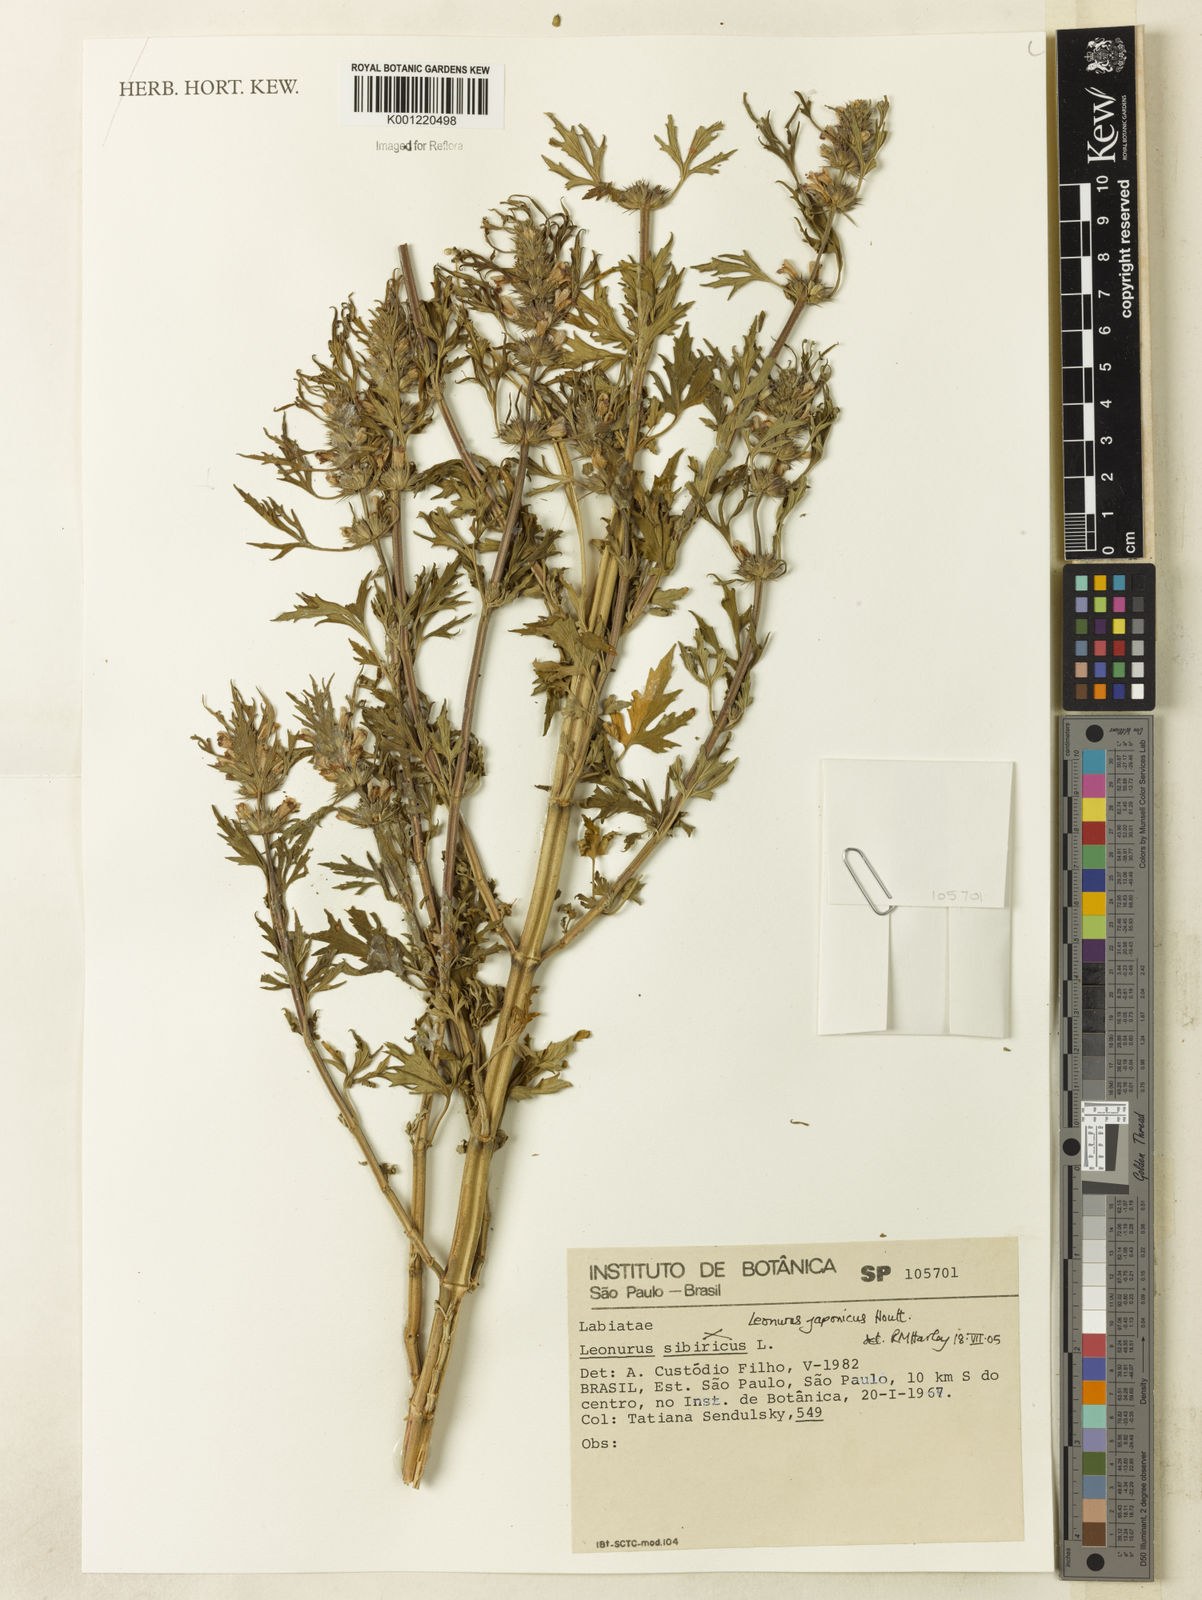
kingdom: Plantae
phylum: Tracheophyta
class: Magnoliopsida
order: Lamiales
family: Lamiaceae
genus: Leonurus
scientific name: Leonurus japonicus
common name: Honeyweed
